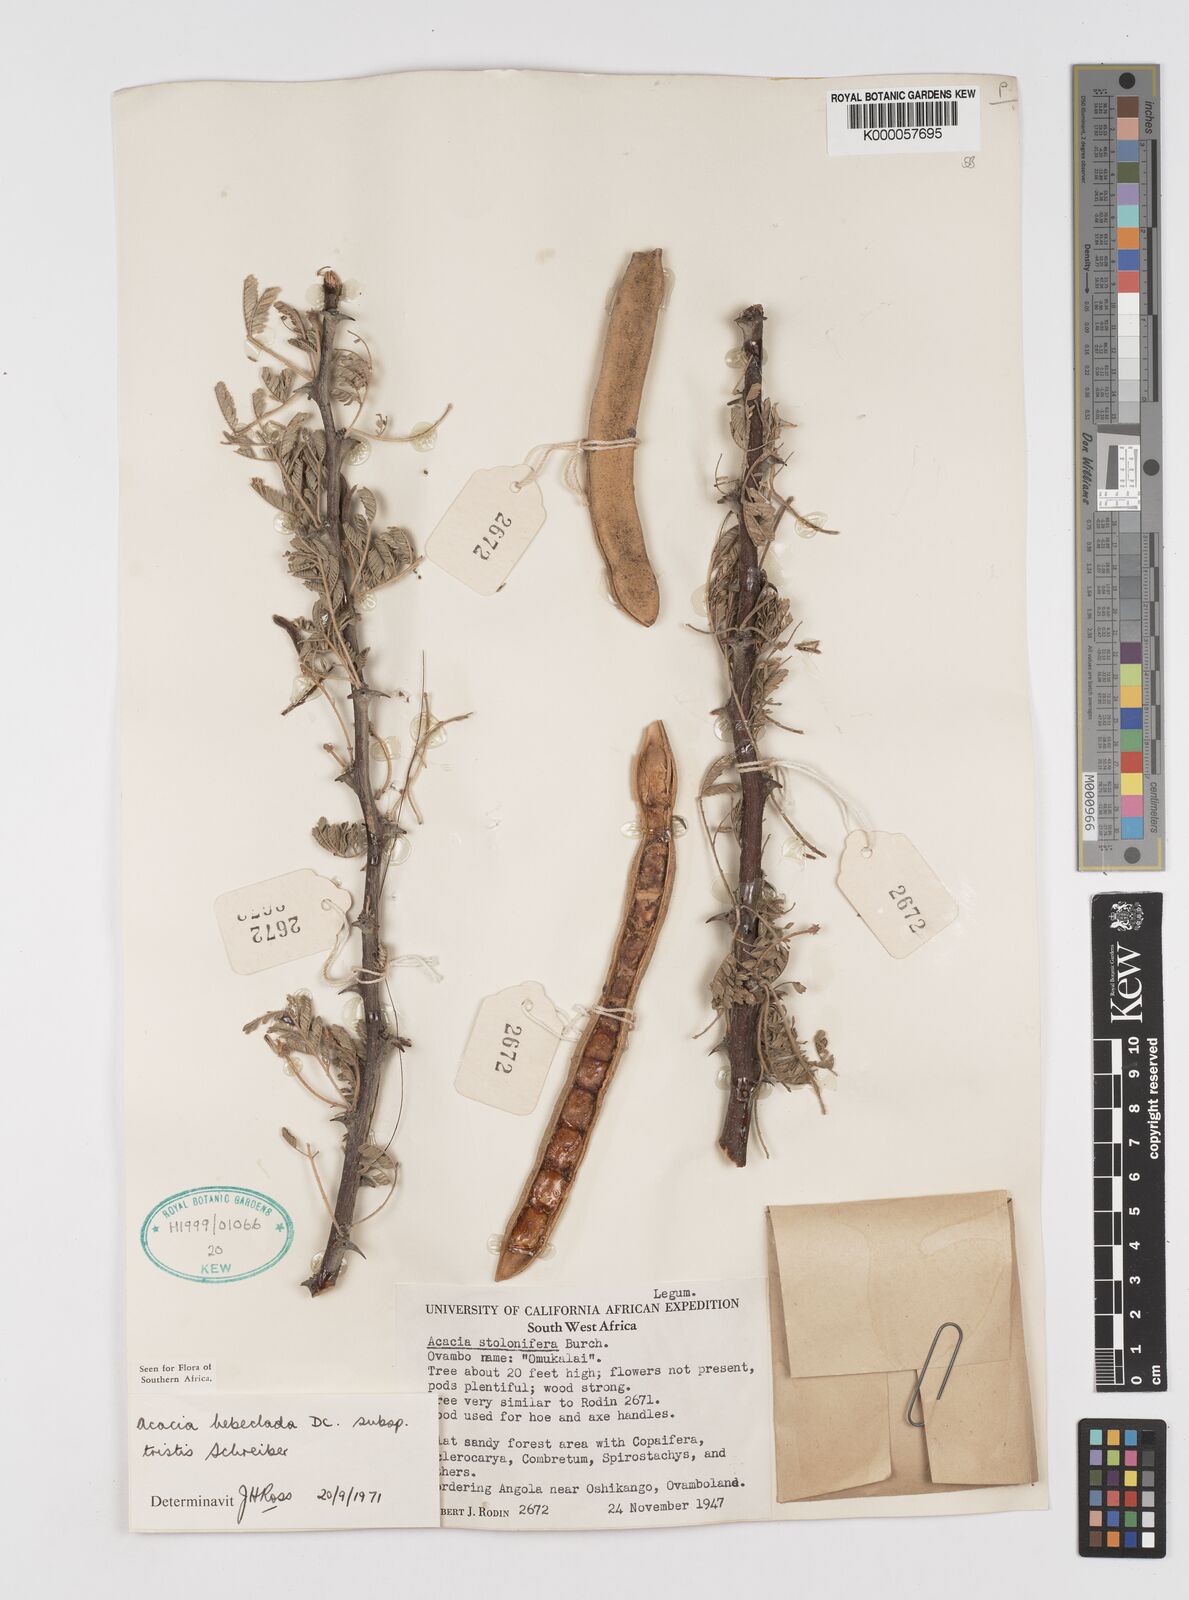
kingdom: Plantae
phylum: Tracheophyta
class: Magnoliopsida
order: Fabales
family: Fabaceae
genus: Vachellia
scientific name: Vachellia hebeclada
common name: Candle thorn
